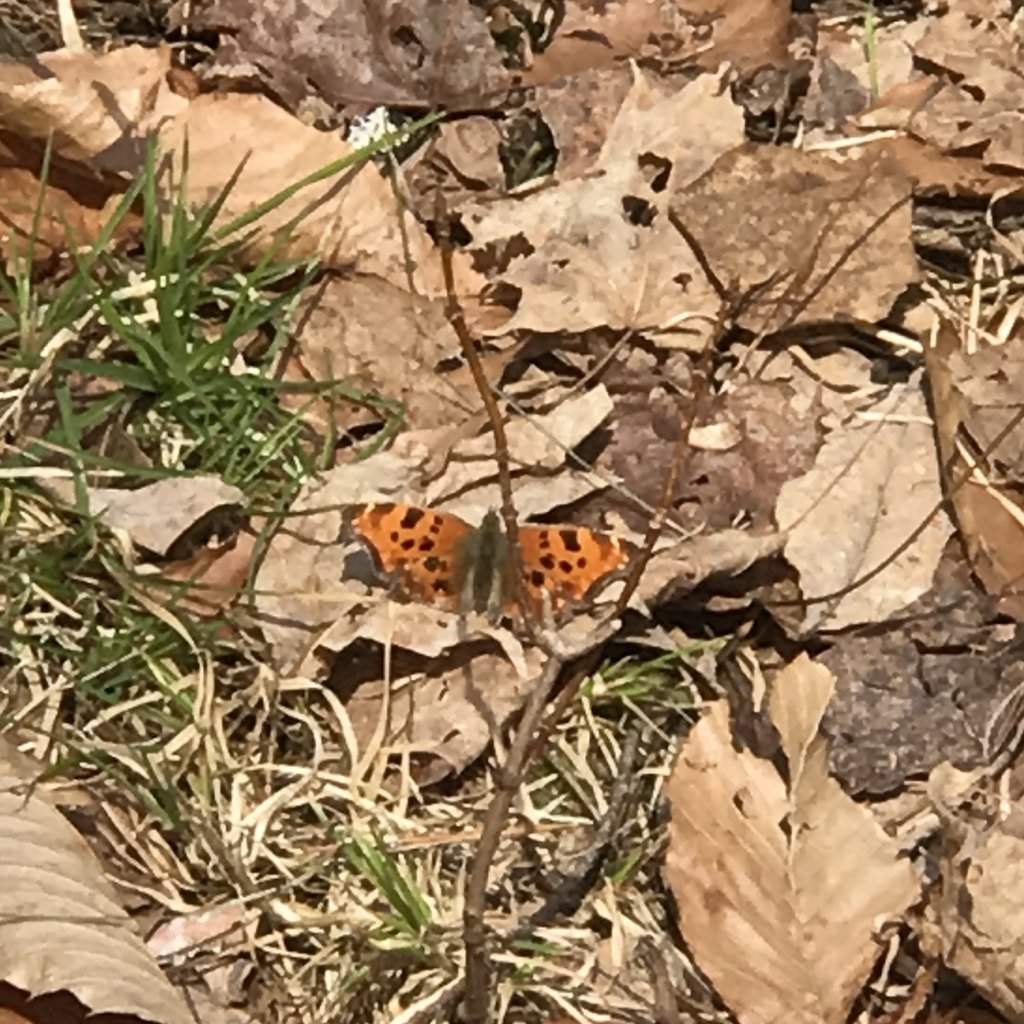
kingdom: Animalia
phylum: Arthropoda
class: Insecta
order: Lepidoptera
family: Nymphalidae
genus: Polygonia
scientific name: Polygonia comma
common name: Eastern Comma
